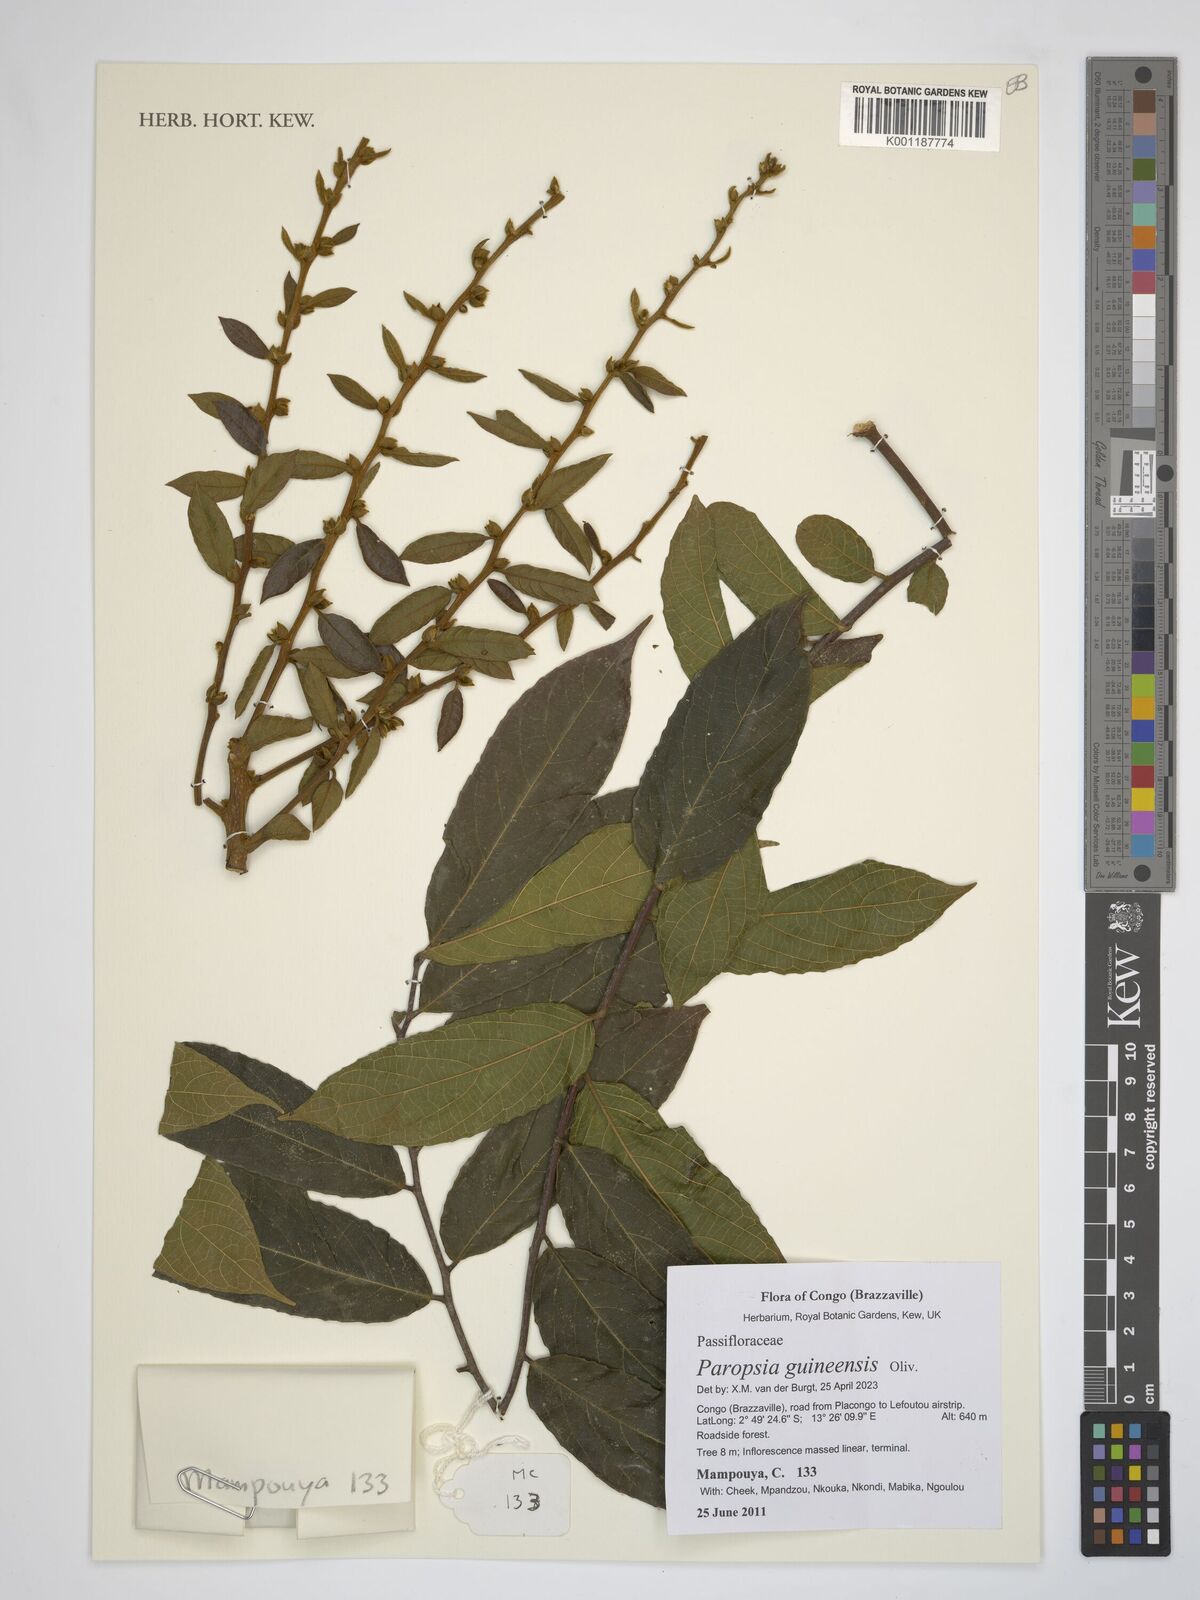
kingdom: Plantae
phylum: Tracheophyta
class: Magnoliopsida
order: Malpighiales
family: Passifloraceae
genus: Paropsia
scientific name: Paropsia guineensis
